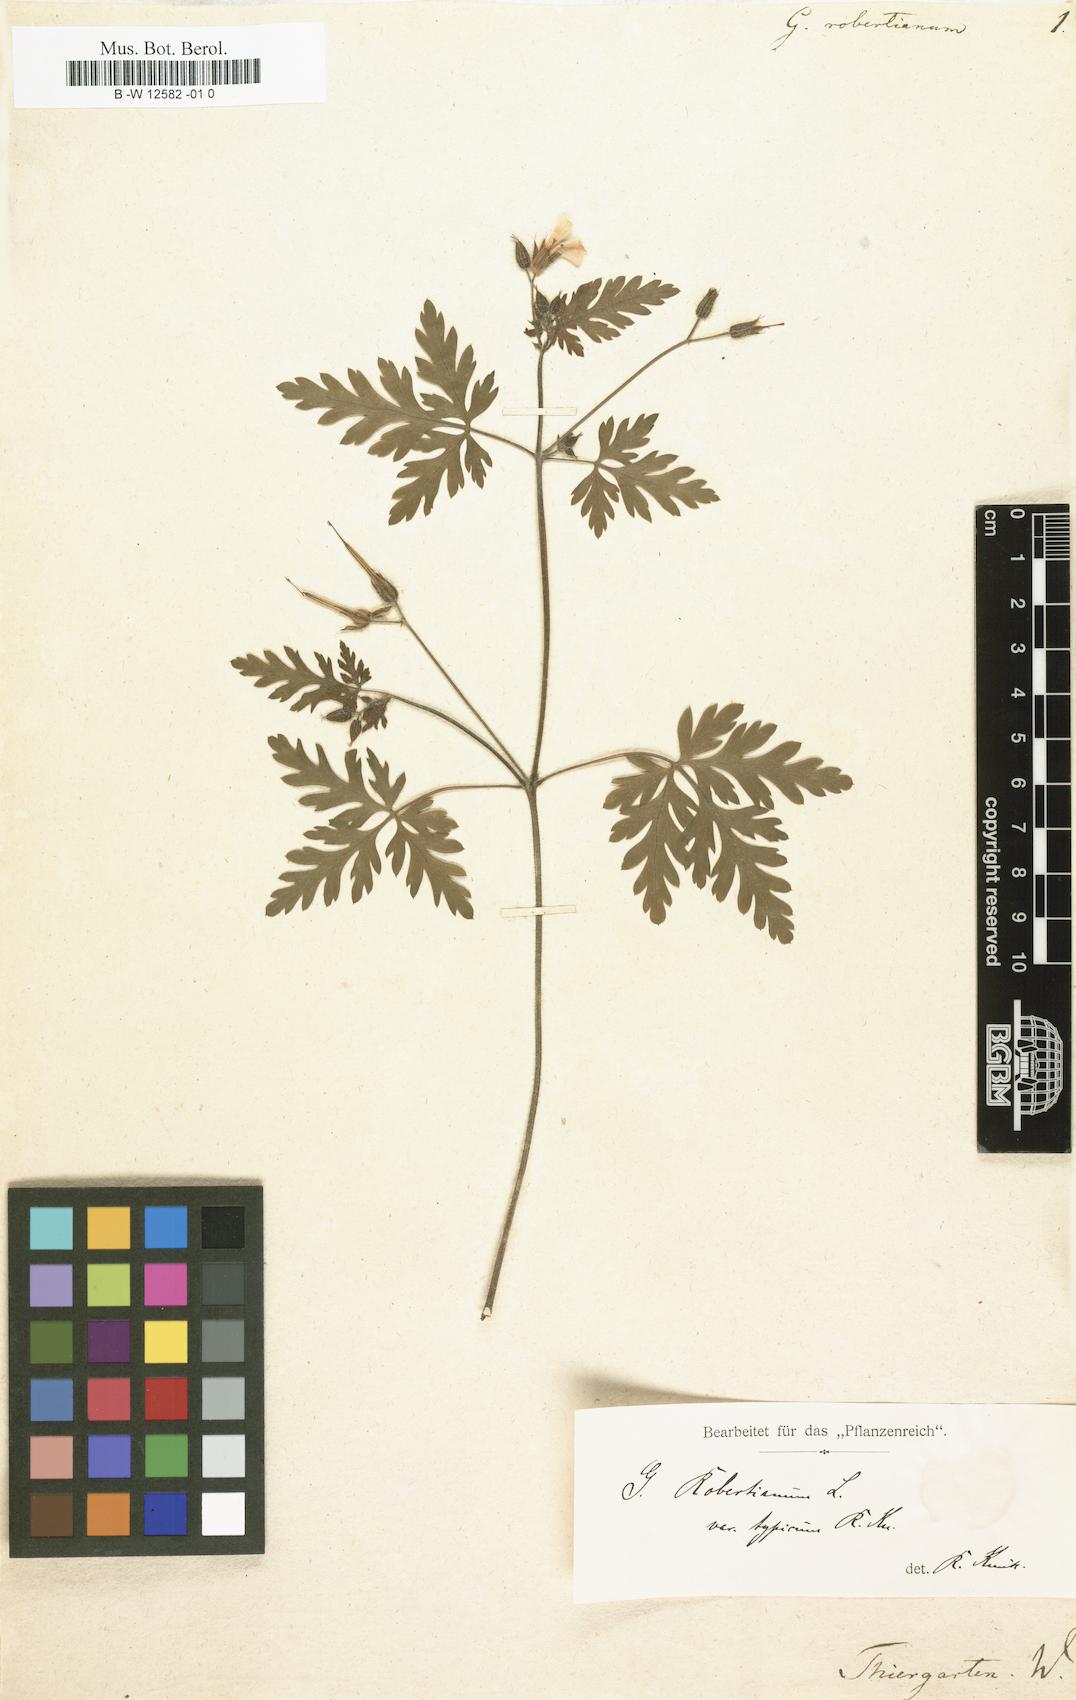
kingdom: Plantae
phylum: Tracheophyta
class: Magnoliopsida
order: Geraniales
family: Geraniaceae
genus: Geranium
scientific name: Geranium robertianum
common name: Herb-robert
